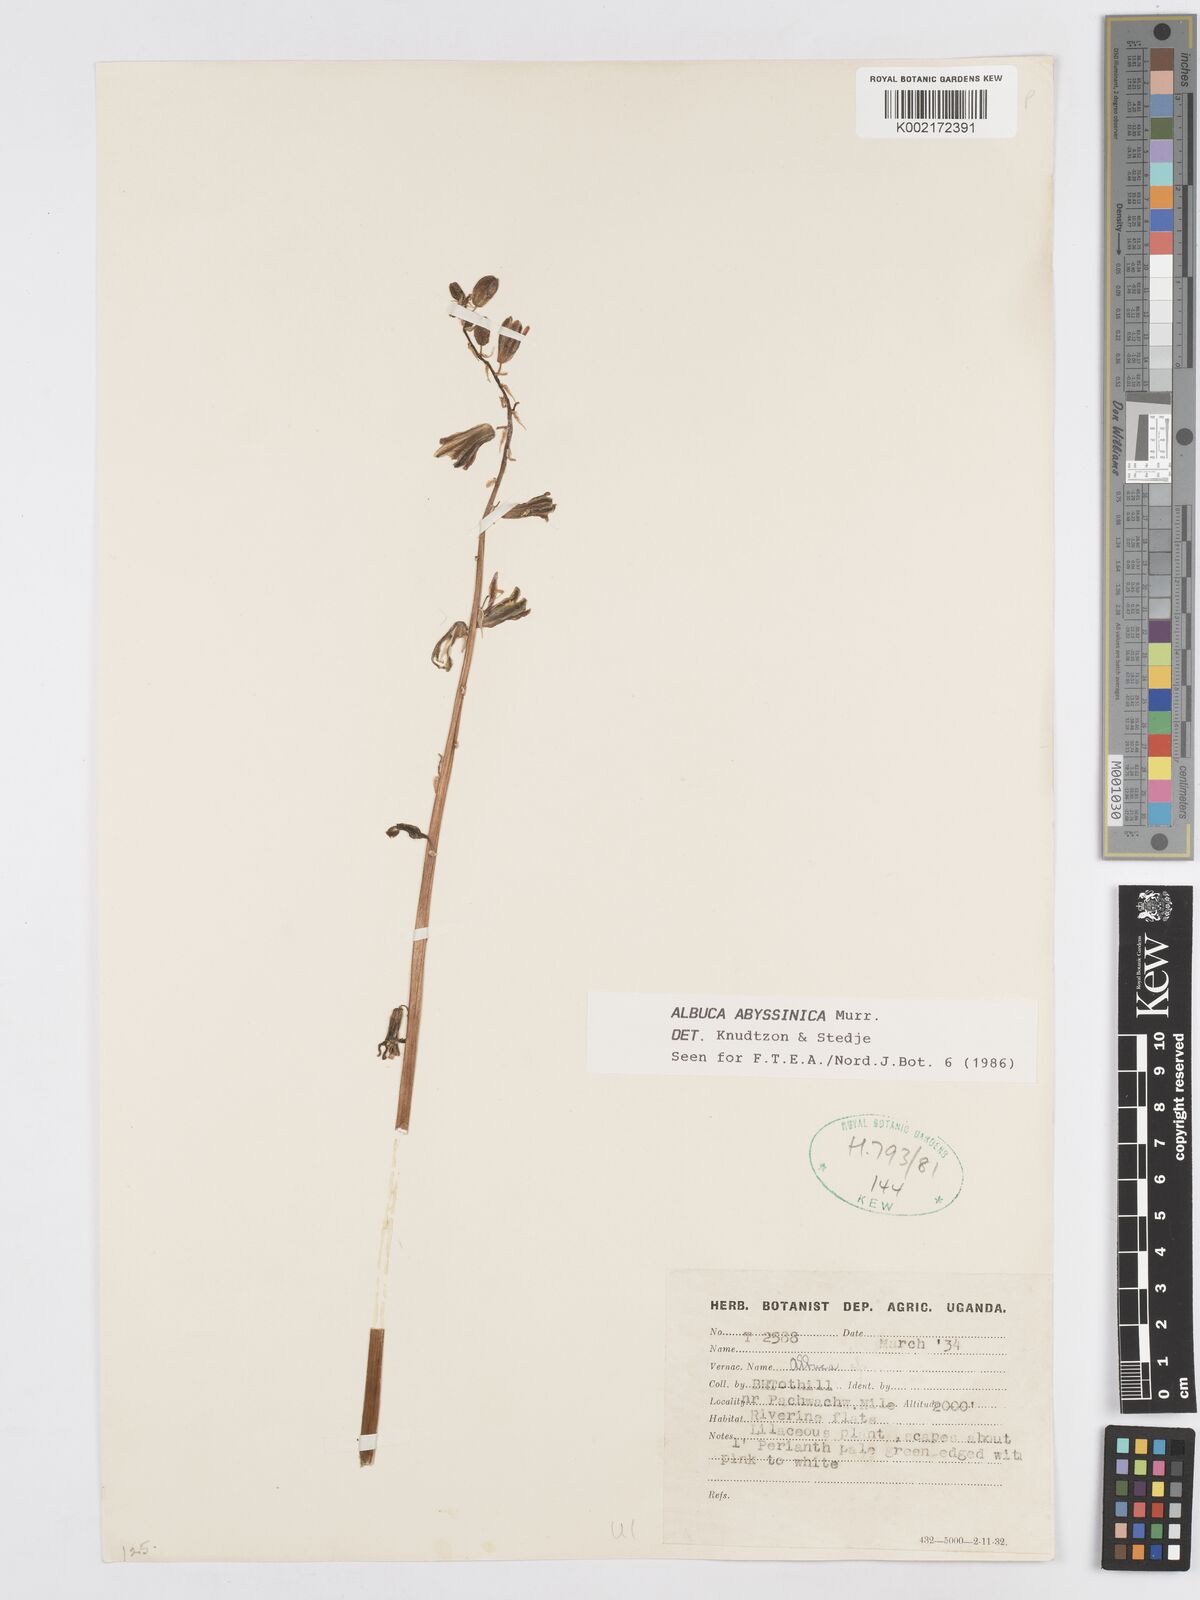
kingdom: Plantae
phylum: Tracheophyta
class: Liliopsida
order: Asparagales
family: Asparagaceae
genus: Albuca
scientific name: Albuca abyssinica
